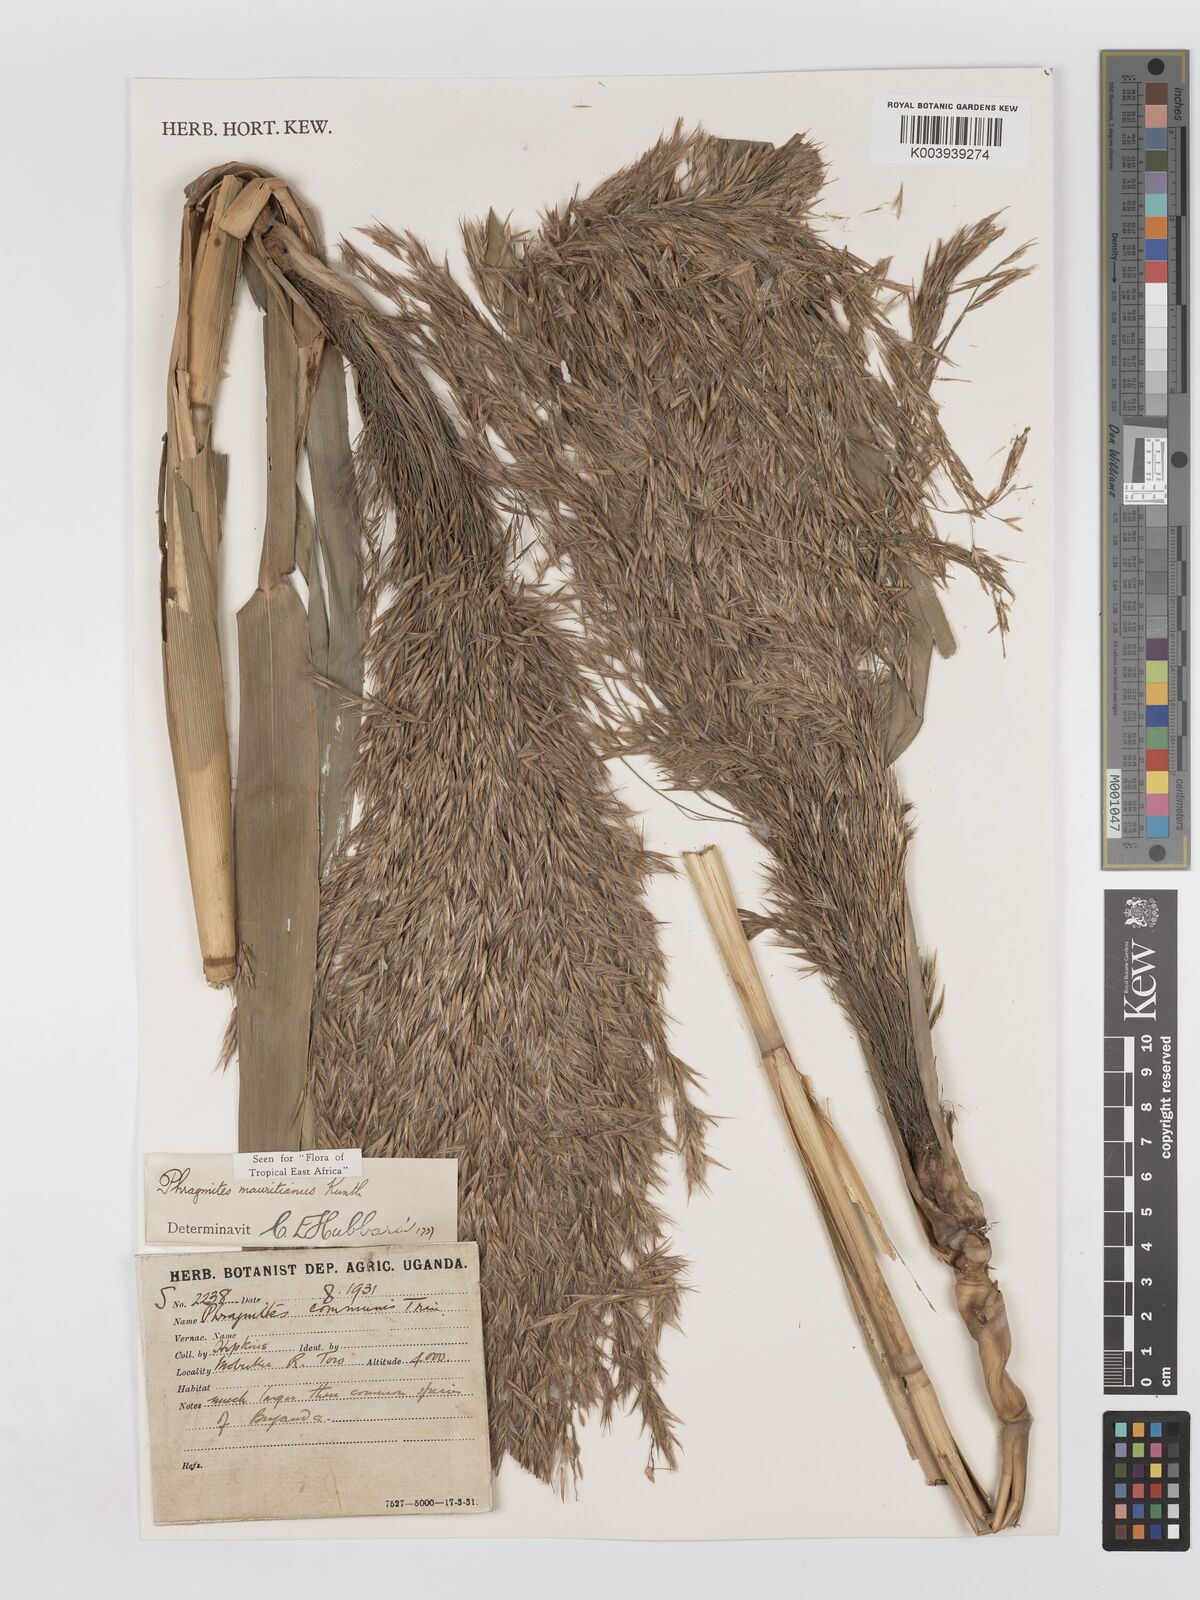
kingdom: Plantae
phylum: Tracheophyta
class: Liliopsida
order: Poales
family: Poaceae
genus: Phragmites
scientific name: Phragmites mauritianus
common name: Reed grass
